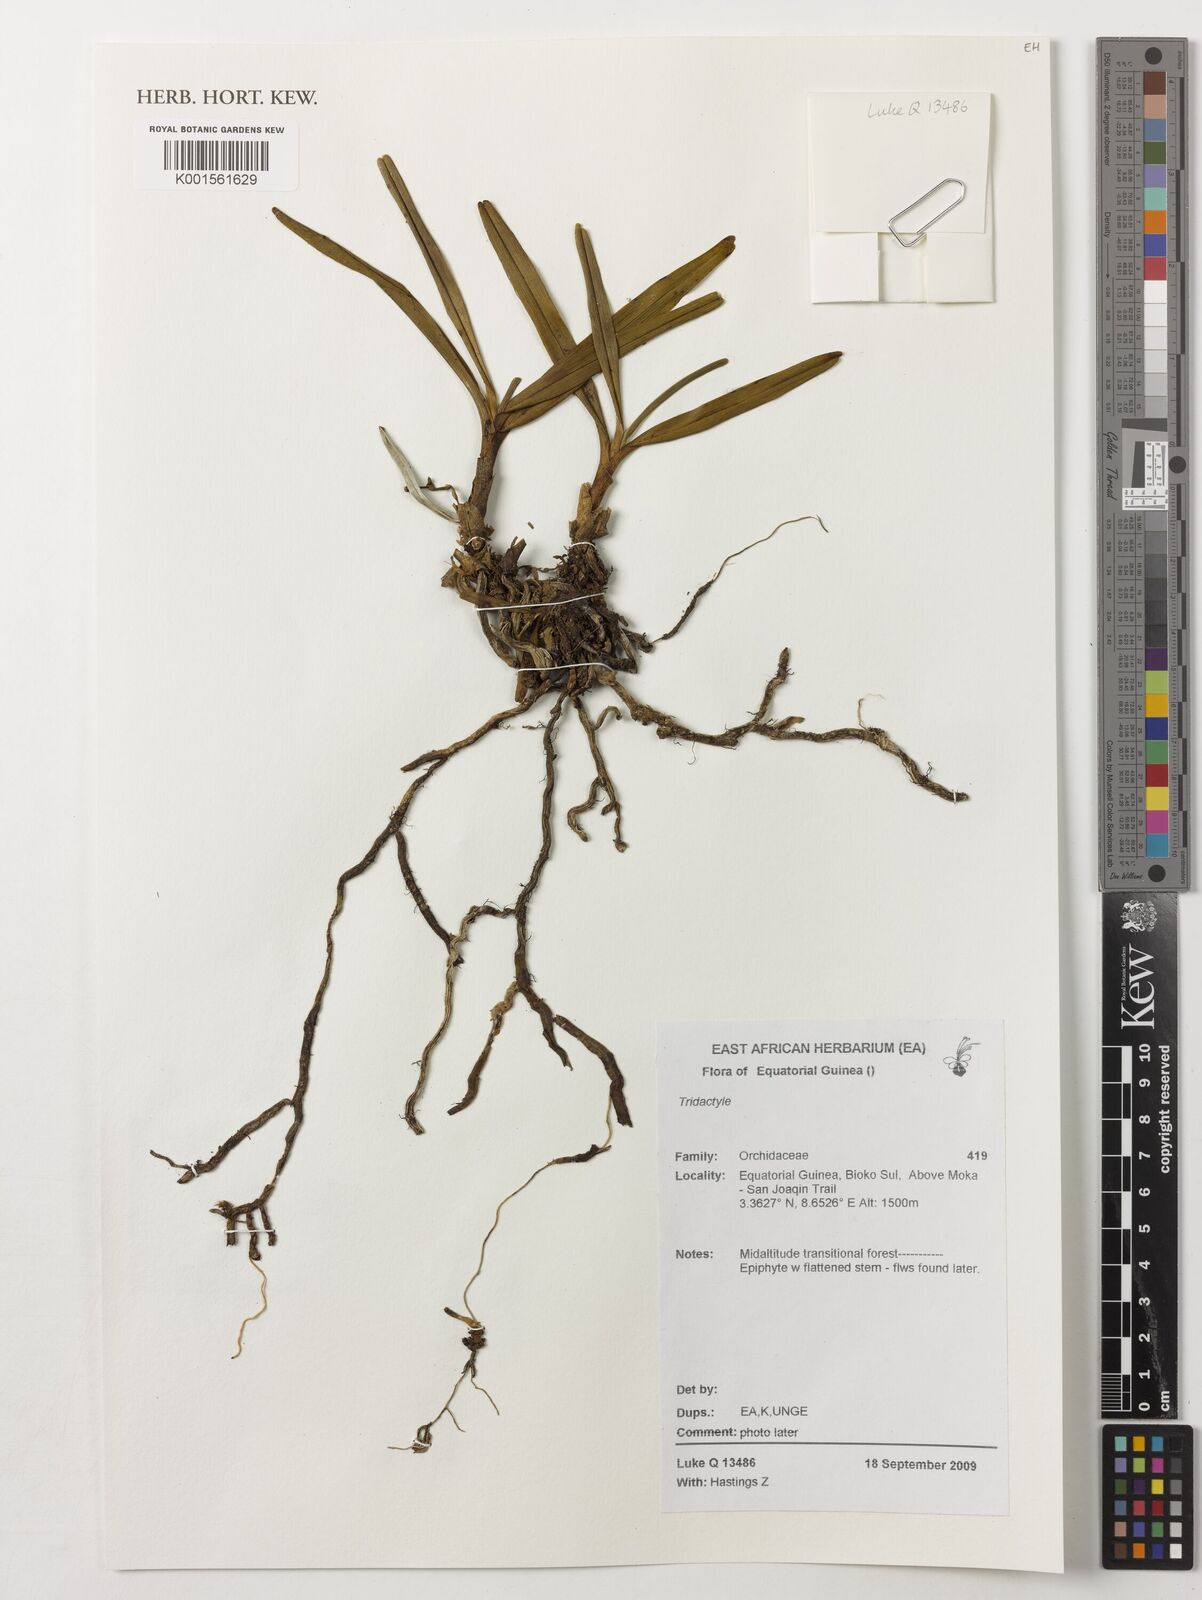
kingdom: Plantae
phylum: Tracheophyta
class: Liliopsida
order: Asparagales
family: Orchidaceae
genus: Tridactyle
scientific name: Tridactyle
